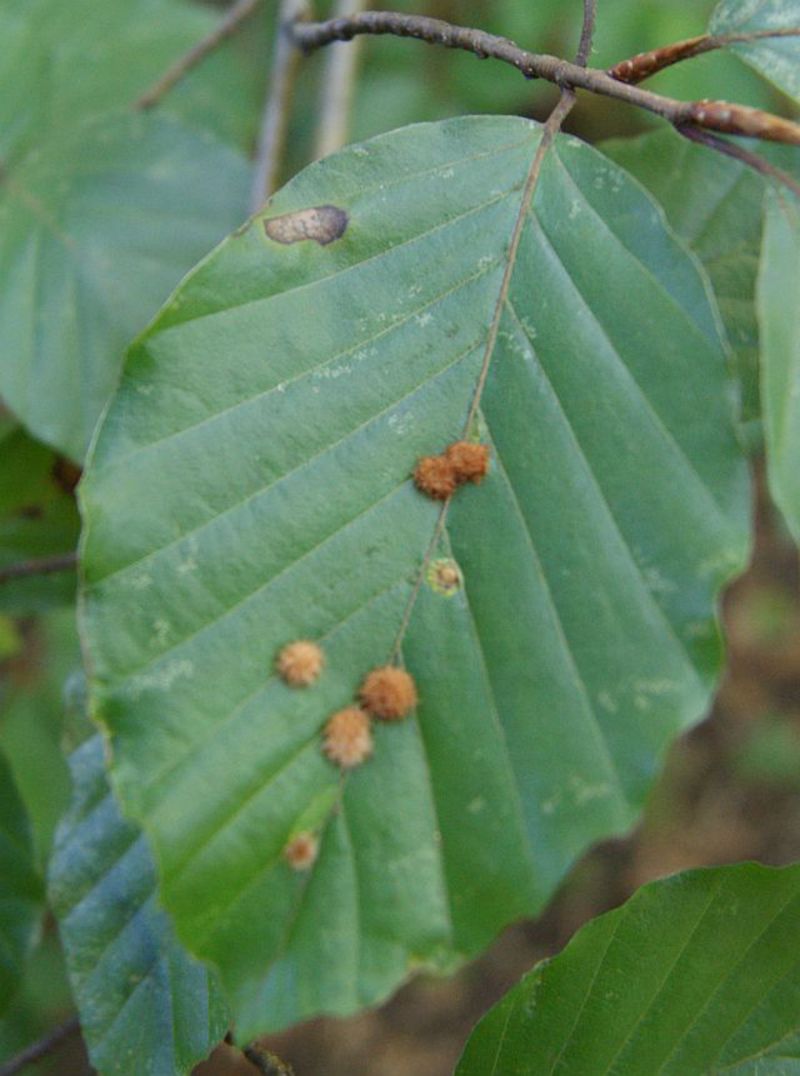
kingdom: Animalia
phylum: Arthropoda
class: Insecta
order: Diptera
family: Cecidomyiidae
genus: Hartigiola
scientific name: Hartigiola annulipes
